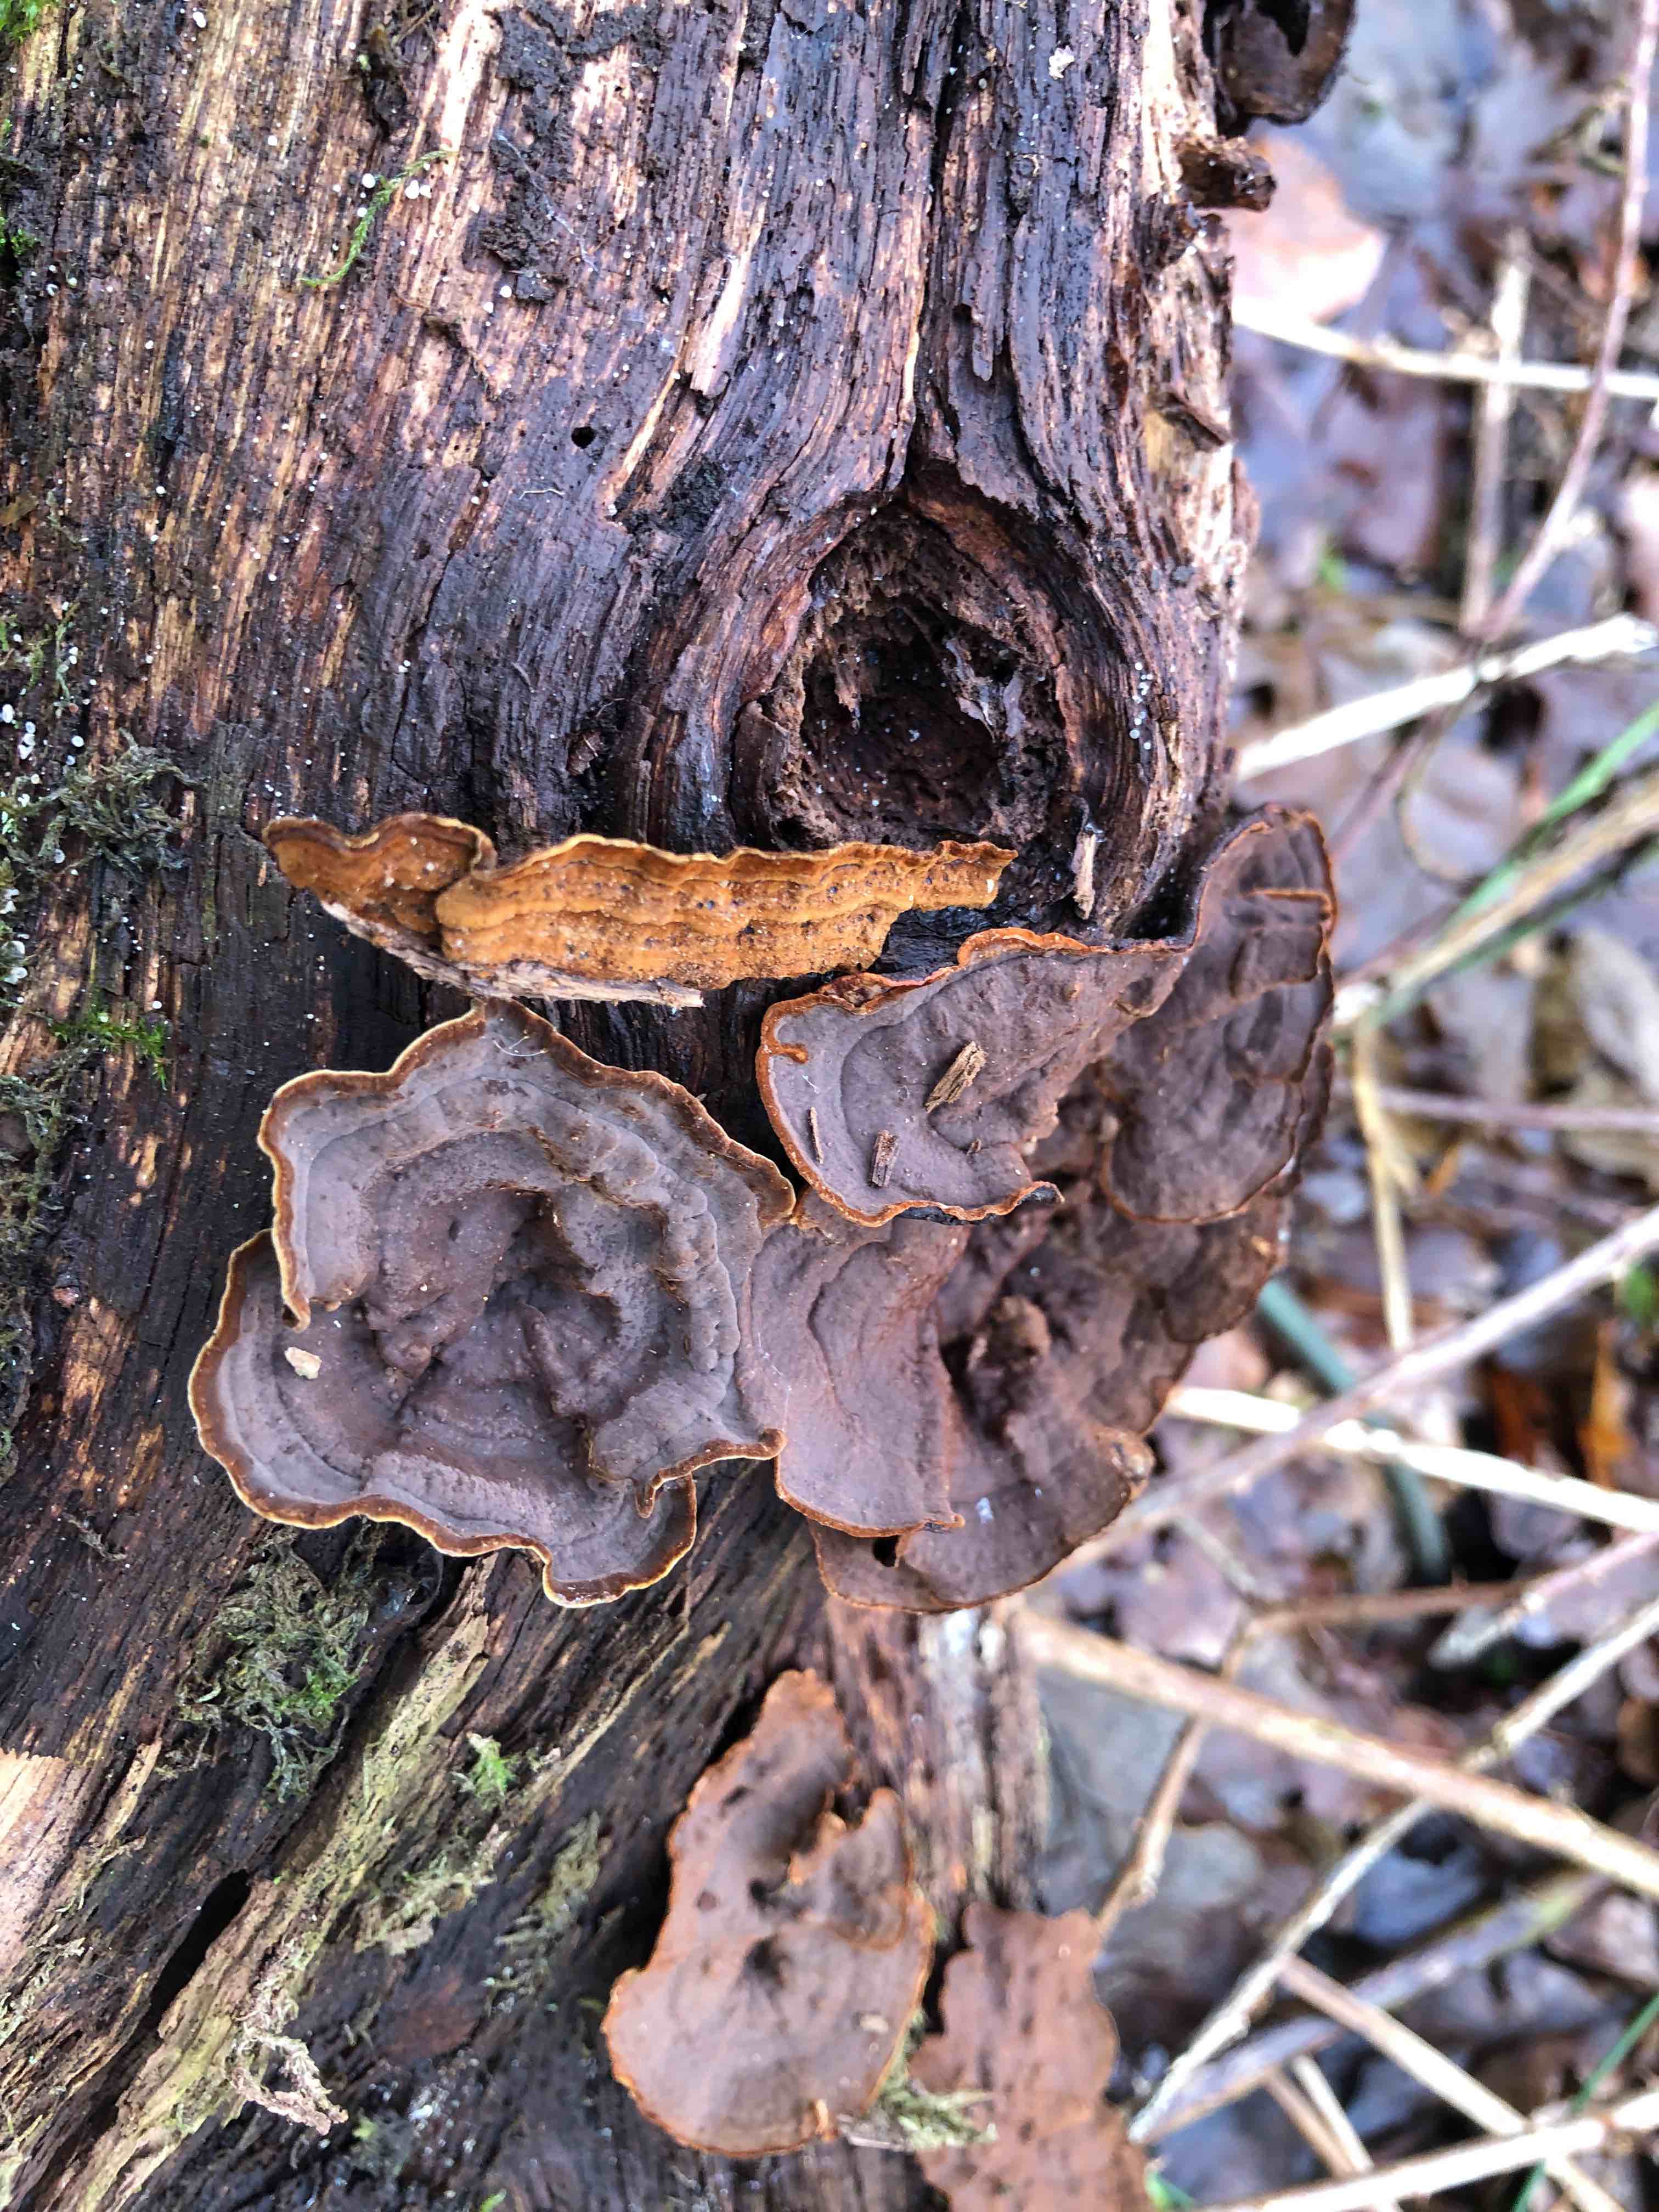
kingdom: Fungi
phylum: Basidiomycota
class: Agaricomycetes
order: Hymenochaetales
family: Hymenochaetaceae
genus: Hymenochaete
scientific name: Hymenochaete rubiginosa
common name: stiv ruslædersvamp
